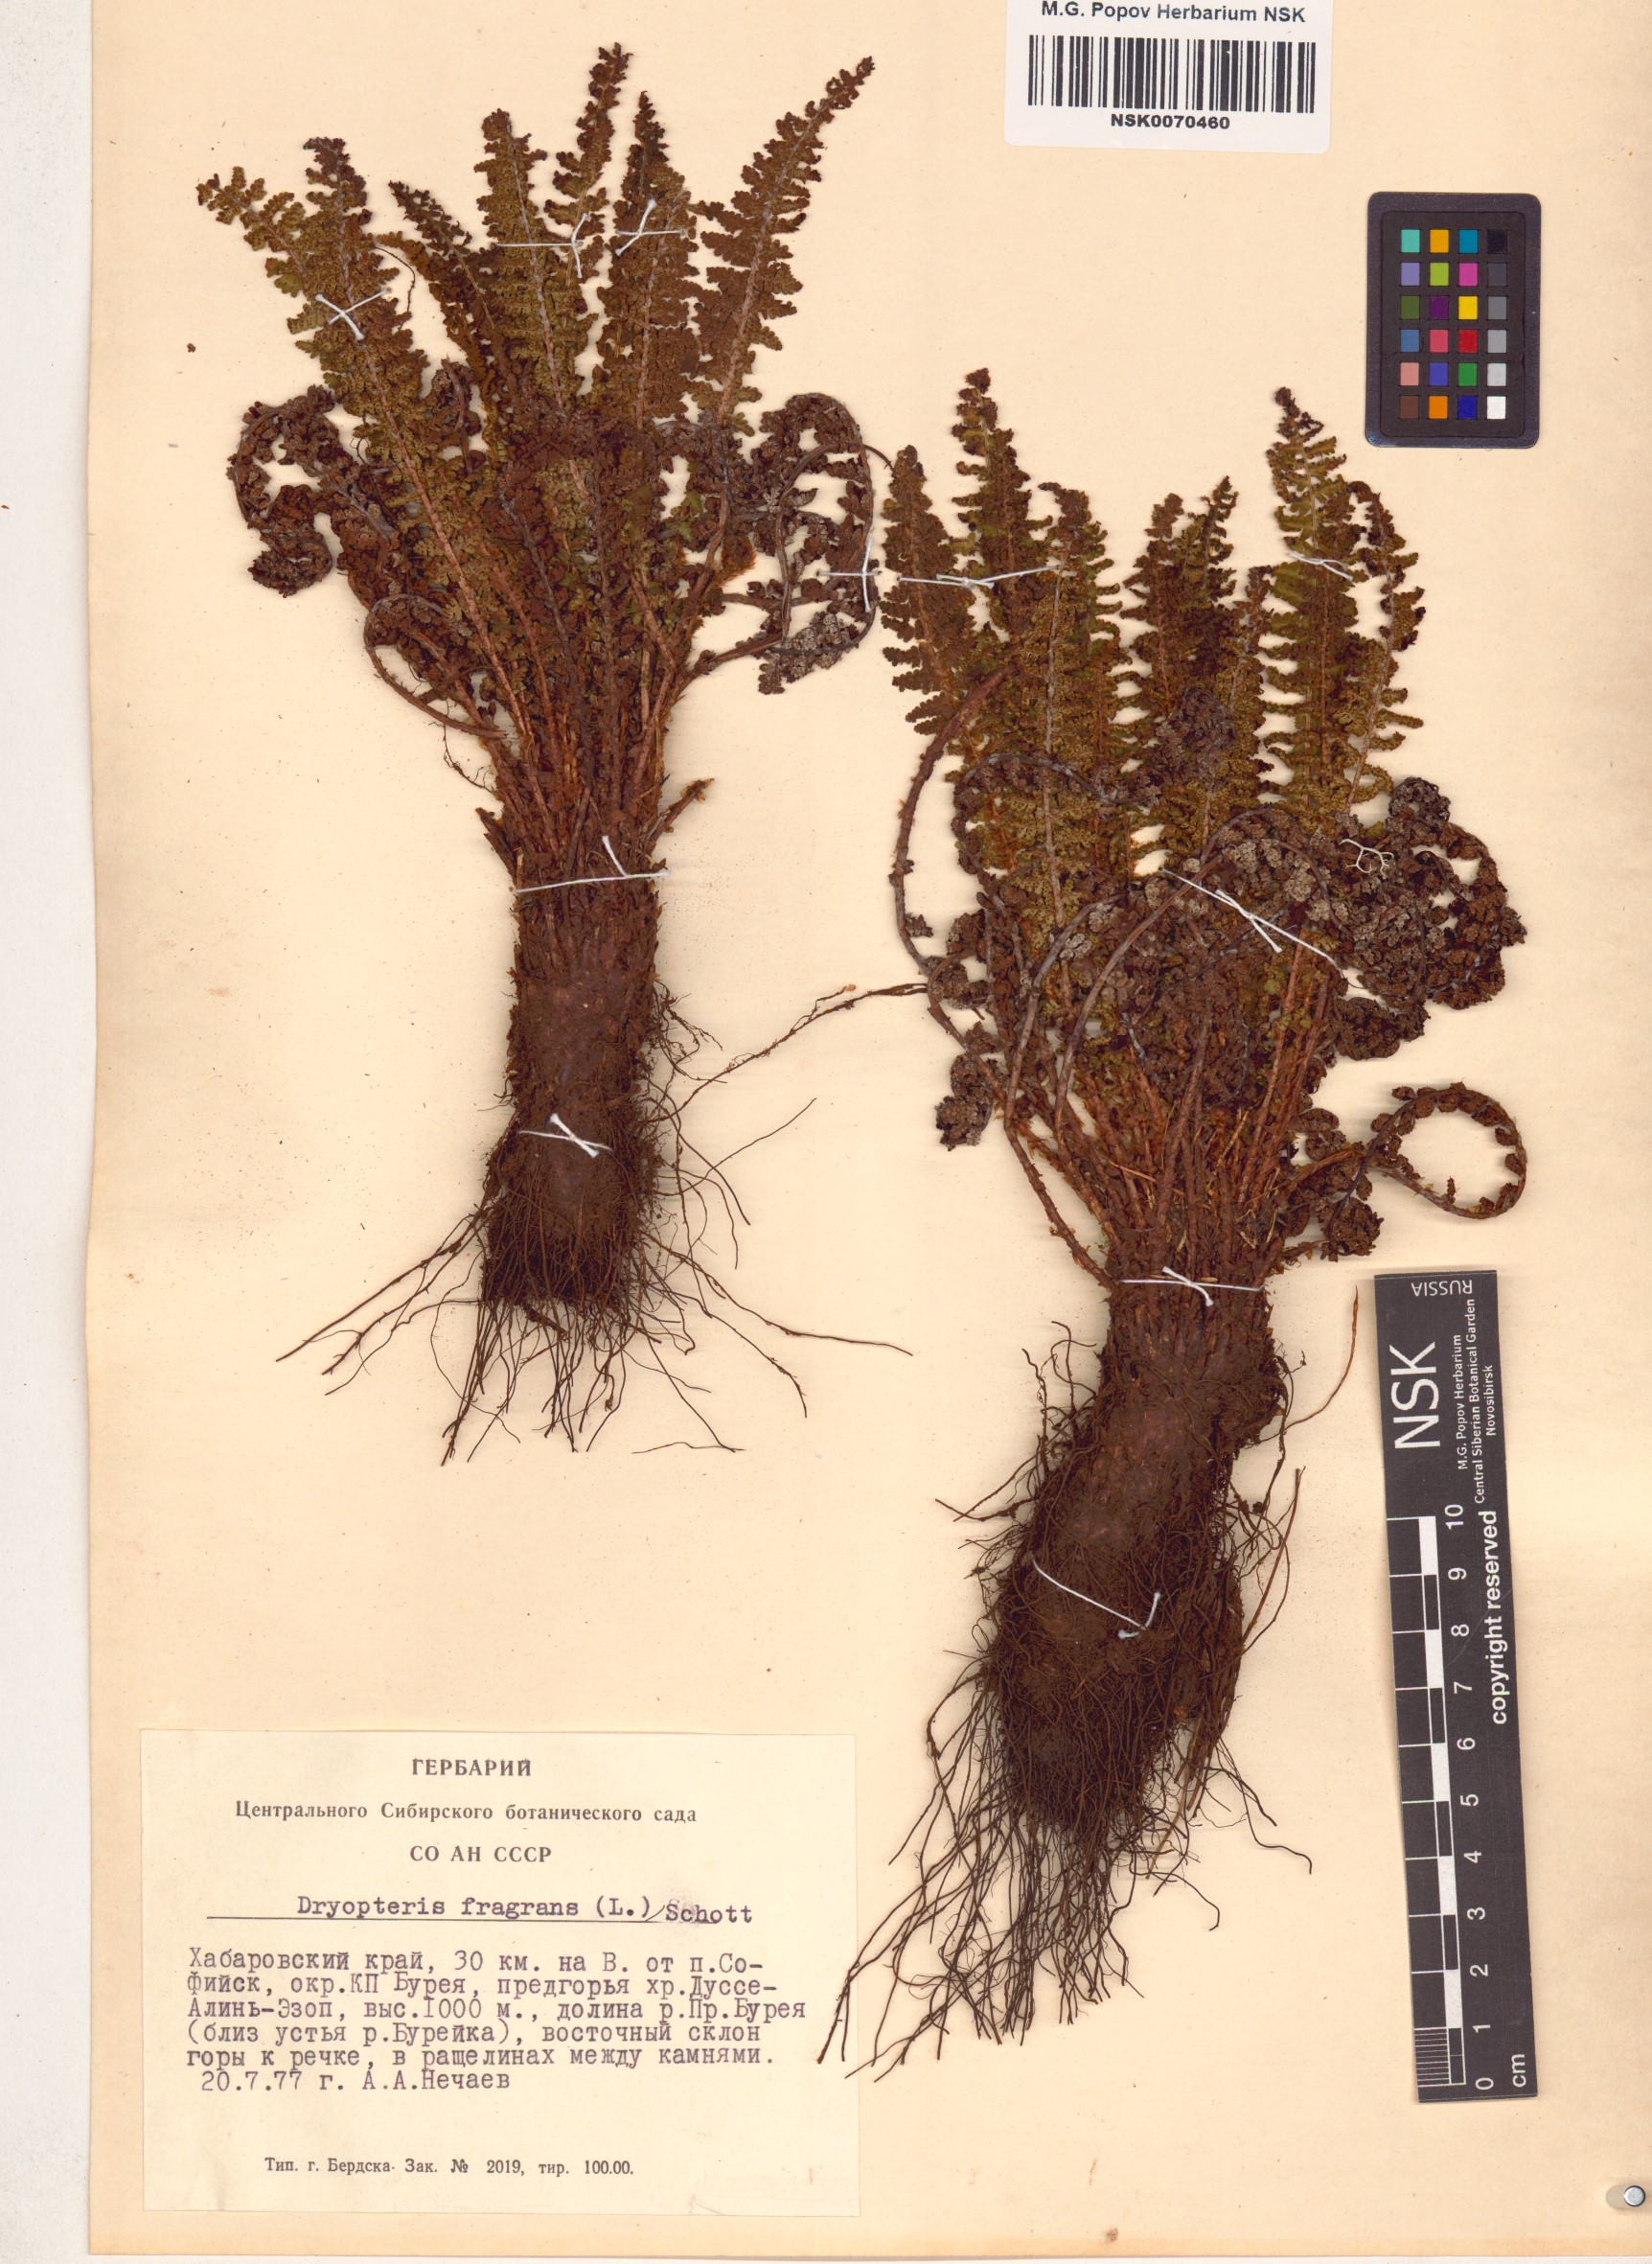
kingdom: Plantae
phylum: Tracheophyta
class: Polypodiopsida
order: Polypodiales
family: Dryopteridaceae
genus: Dryopteris
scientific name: Dryopteris fragrans
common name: Fragrant wood fern
